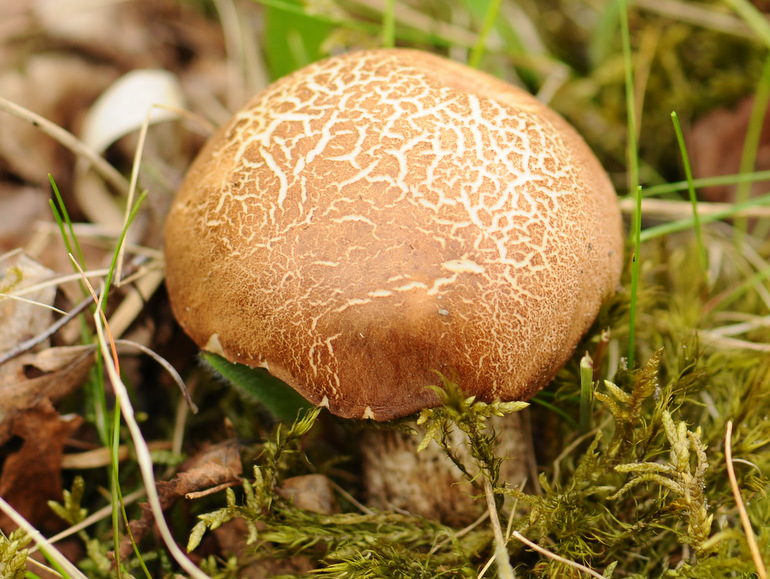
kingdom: Fungi
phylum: Basidiomycota
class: Agaricomycetes
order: Boletales
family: Boletaceae
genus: Leccinum
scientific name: Leccinum scabrum
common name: brun skælrørhat
